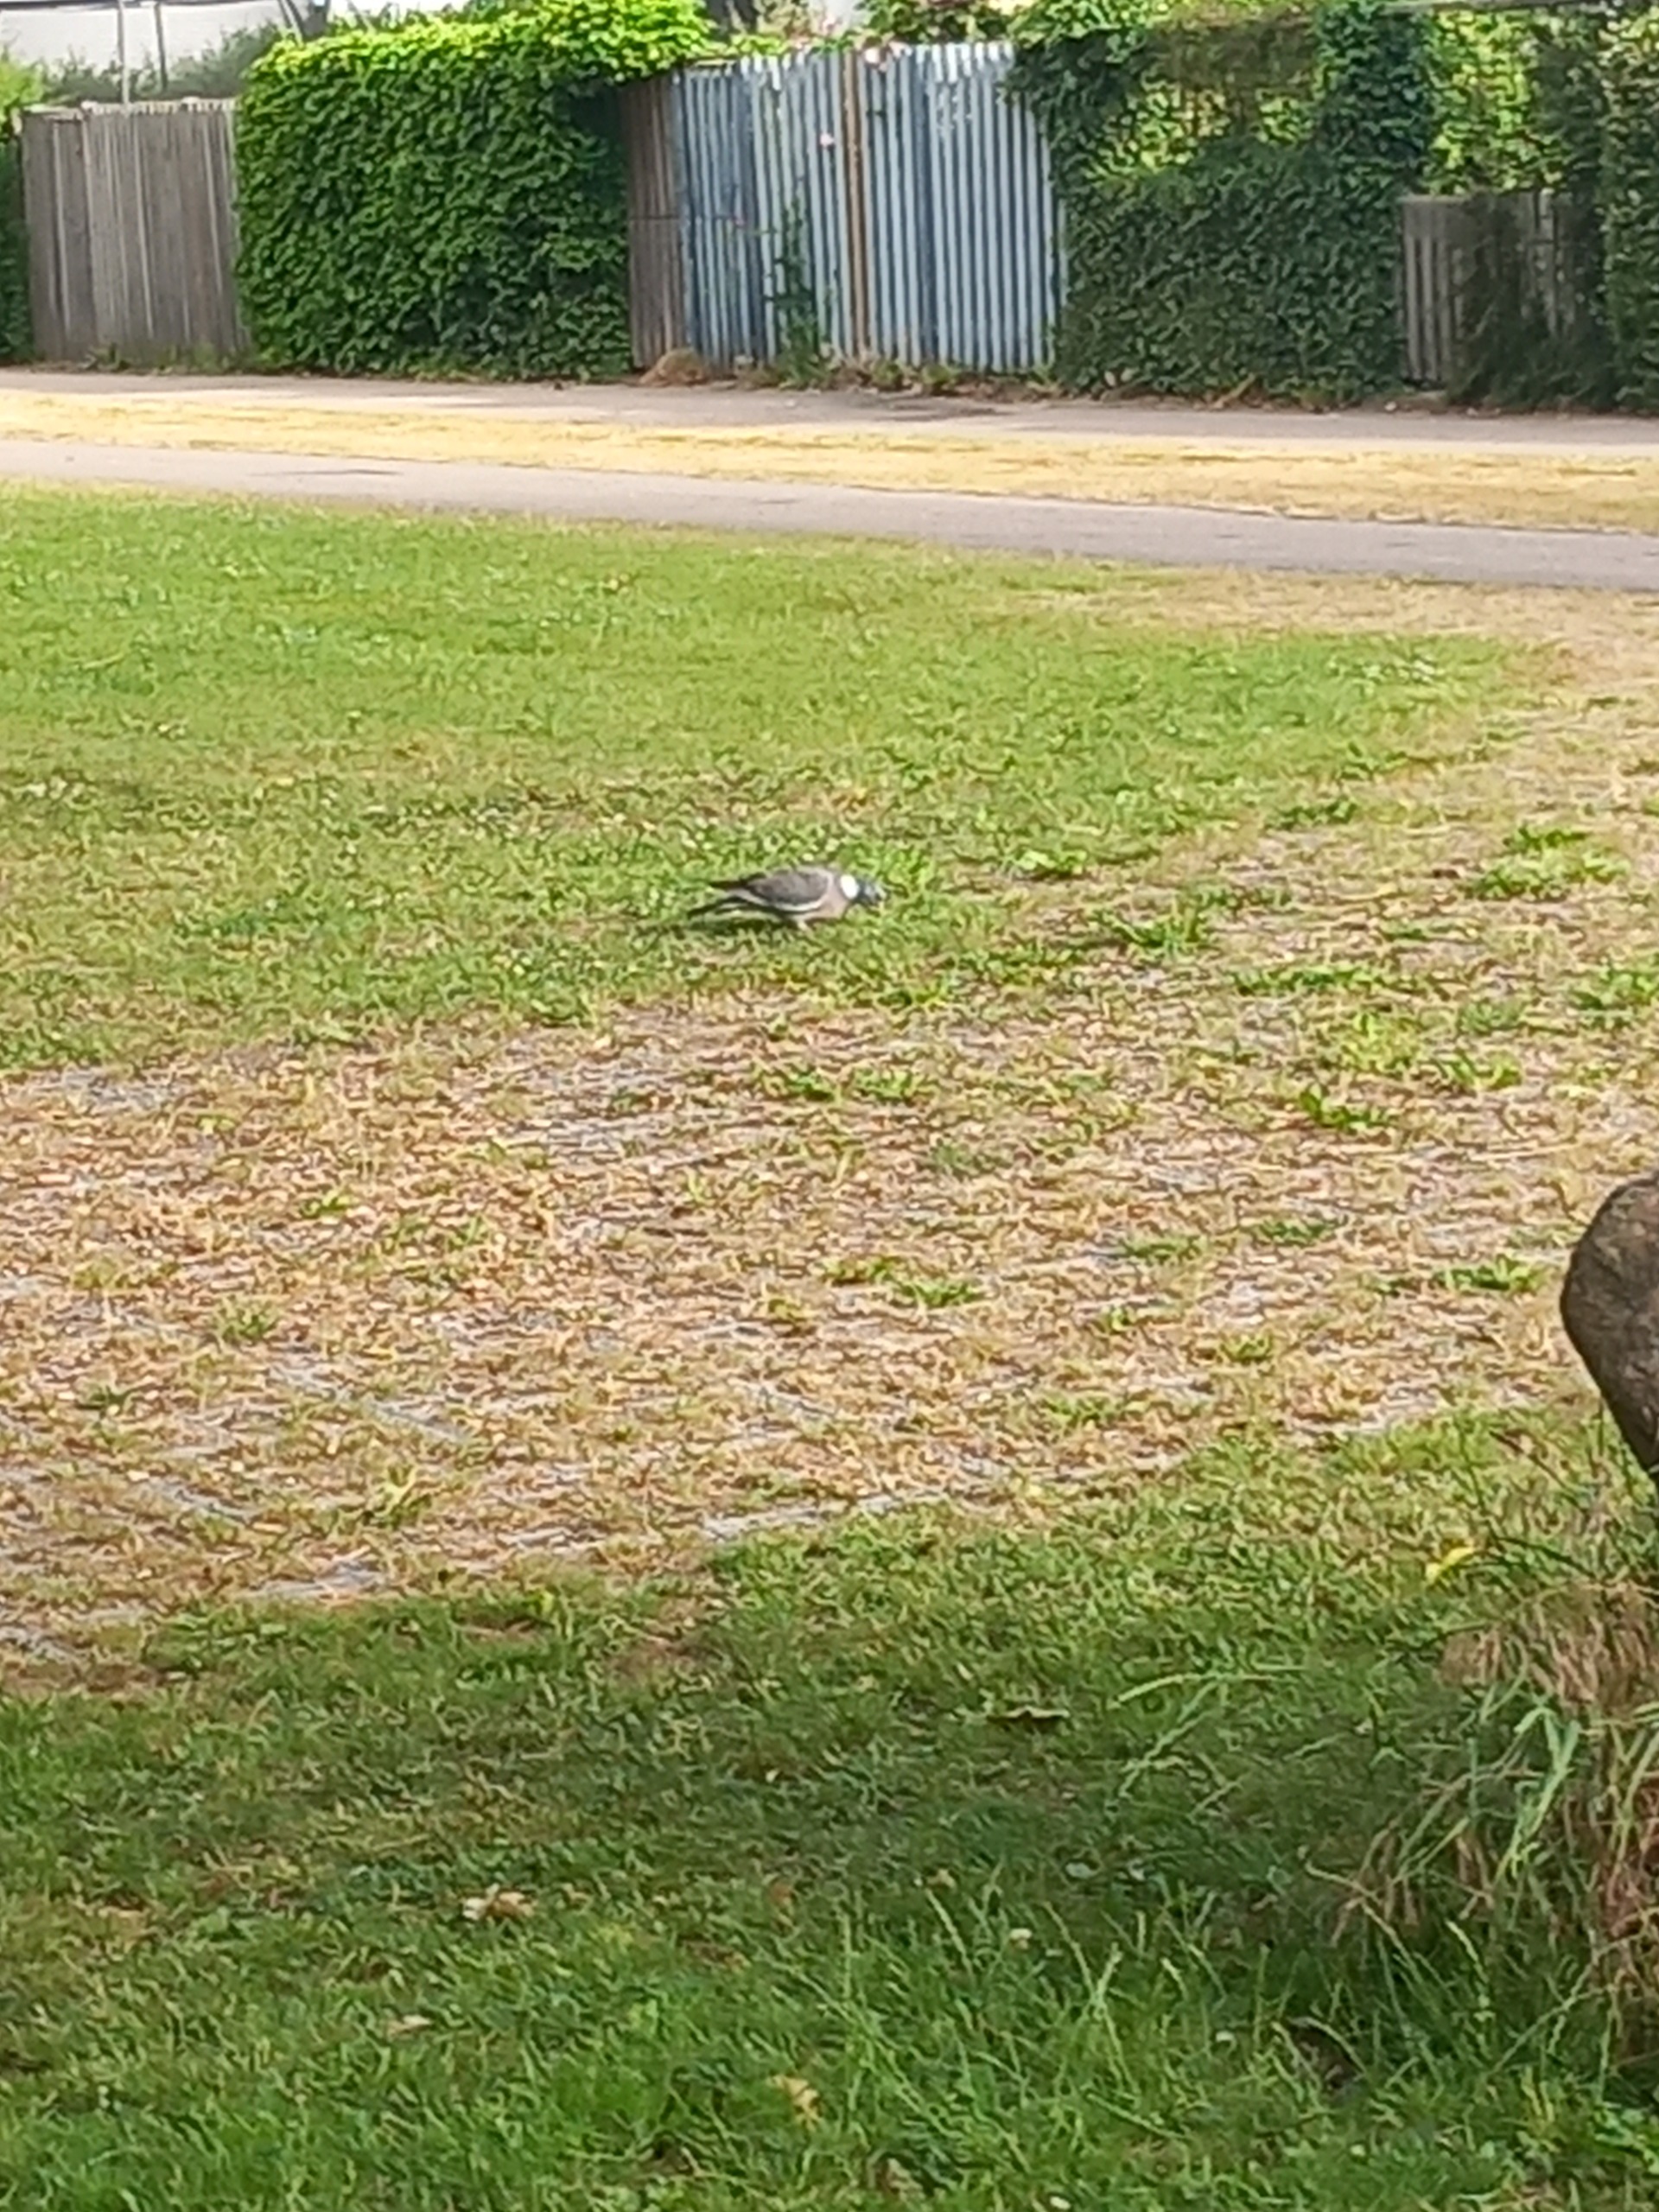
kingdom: Animalia
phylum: Chordata
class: Aves
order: Columbiformes
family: Columbidae
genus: Columba
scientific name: Columba palumbus
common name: Ringdue
